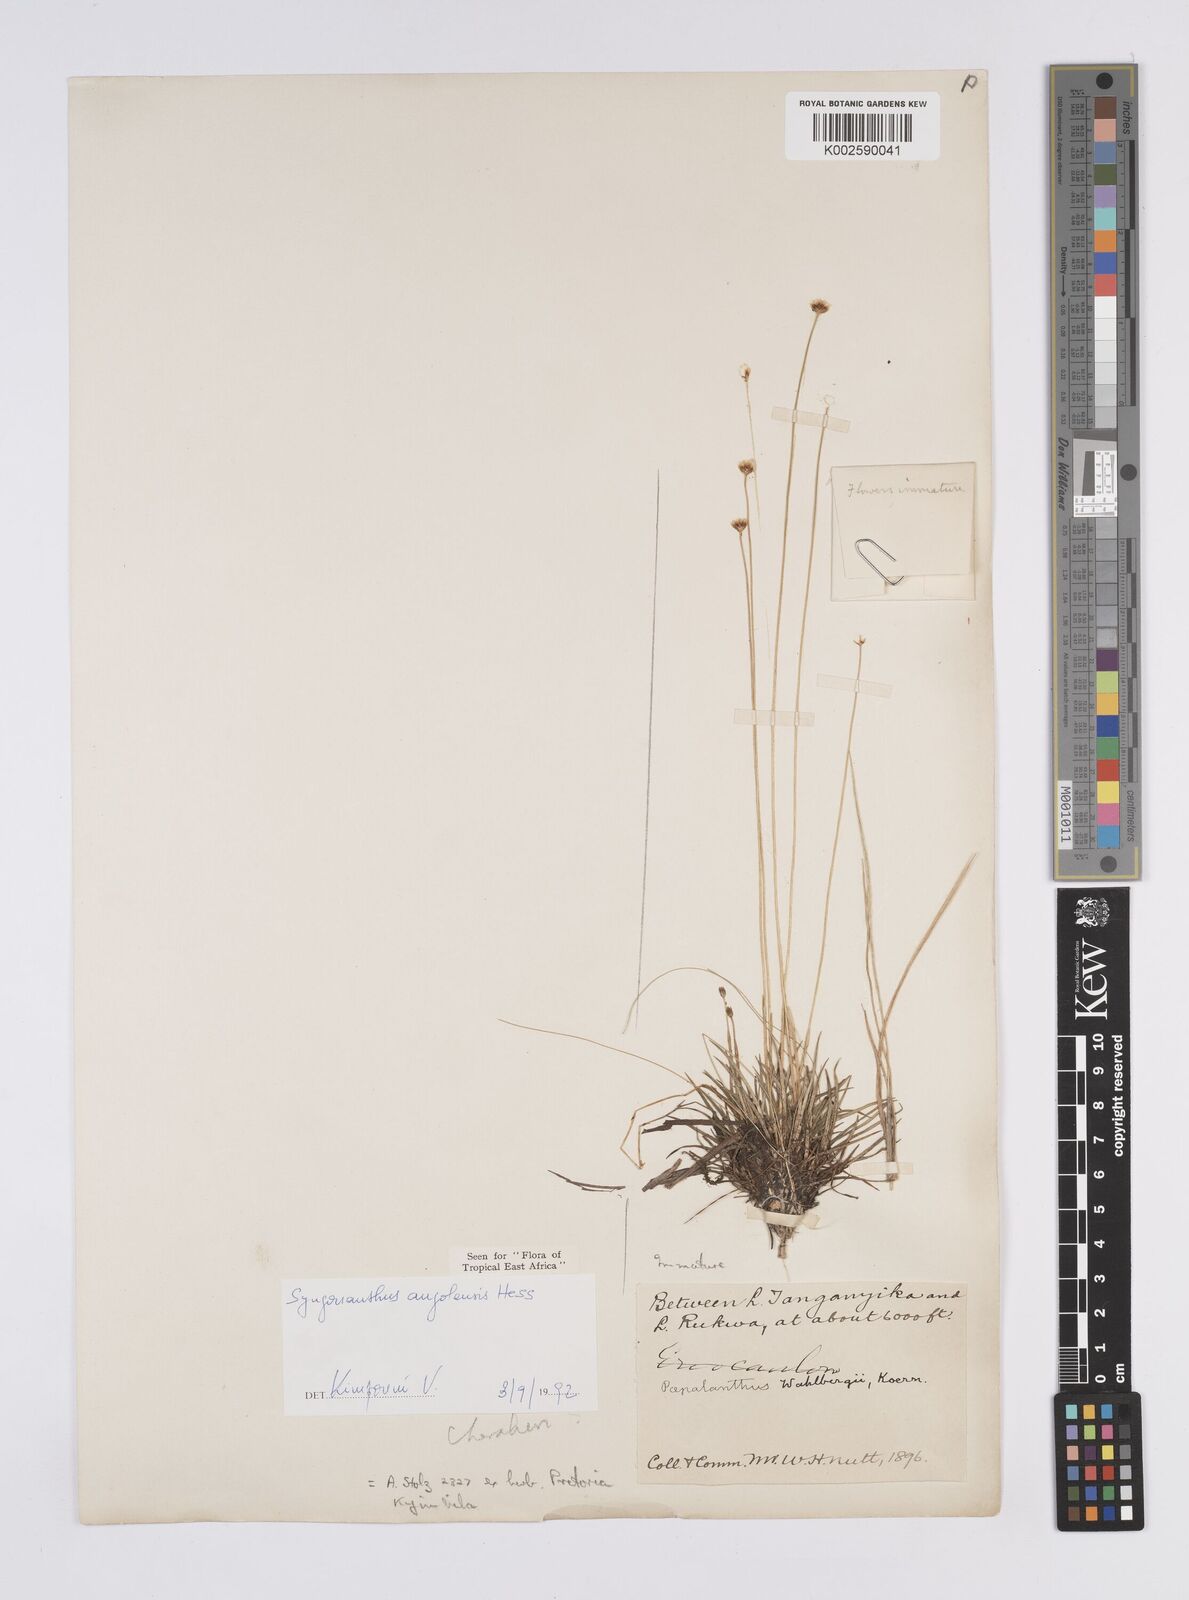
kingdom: Plantae
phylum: Tracheophyta
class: Liliopsida
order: Poales
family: Eriocaulaceae
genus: Syngonanthus
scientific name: Syngonanthus angolensis
